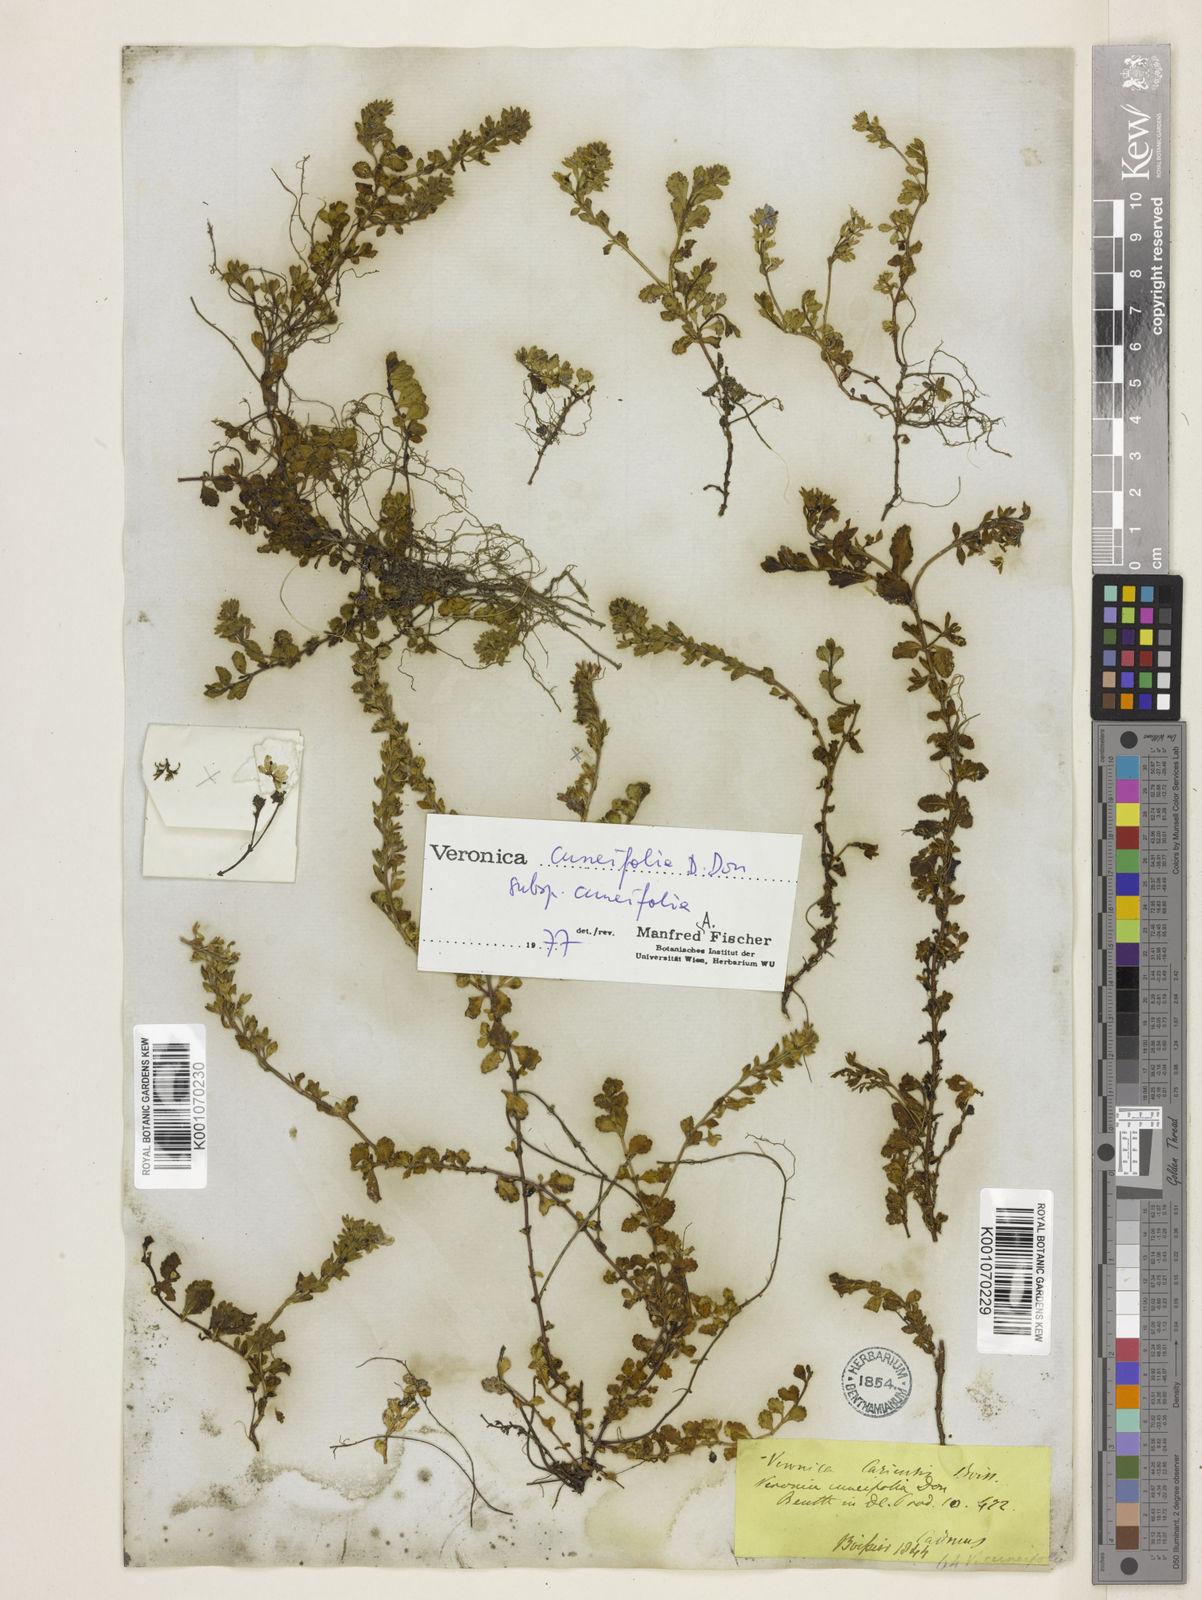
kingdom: Plantae
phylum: Tracheophyta
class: Magnoliopsida
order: Lamiales
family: Plantaginaceae
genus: Veronica
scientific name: Veronica cuneifolia
